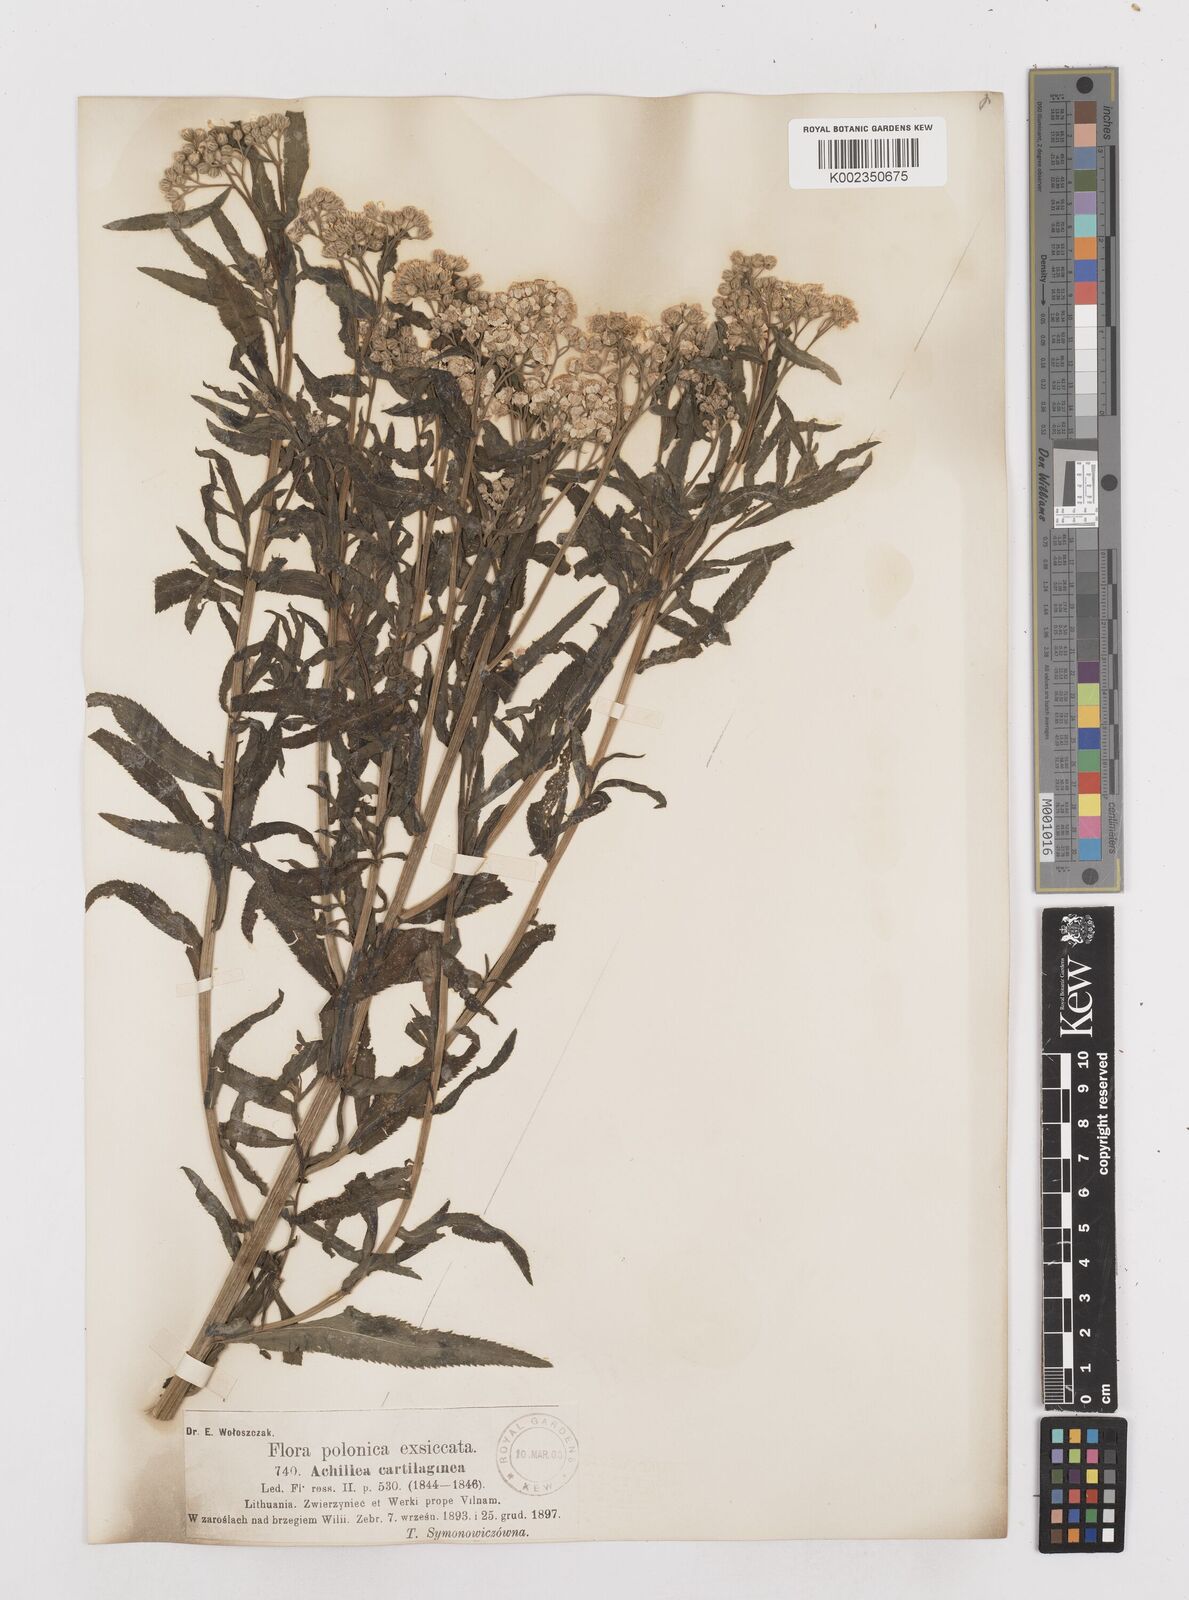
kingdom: Plantae
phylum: Tracheophyta
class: Magnoliopsida
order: Asterales
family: Asteraceae
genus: Achillea
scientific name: Achillea salicifolia
